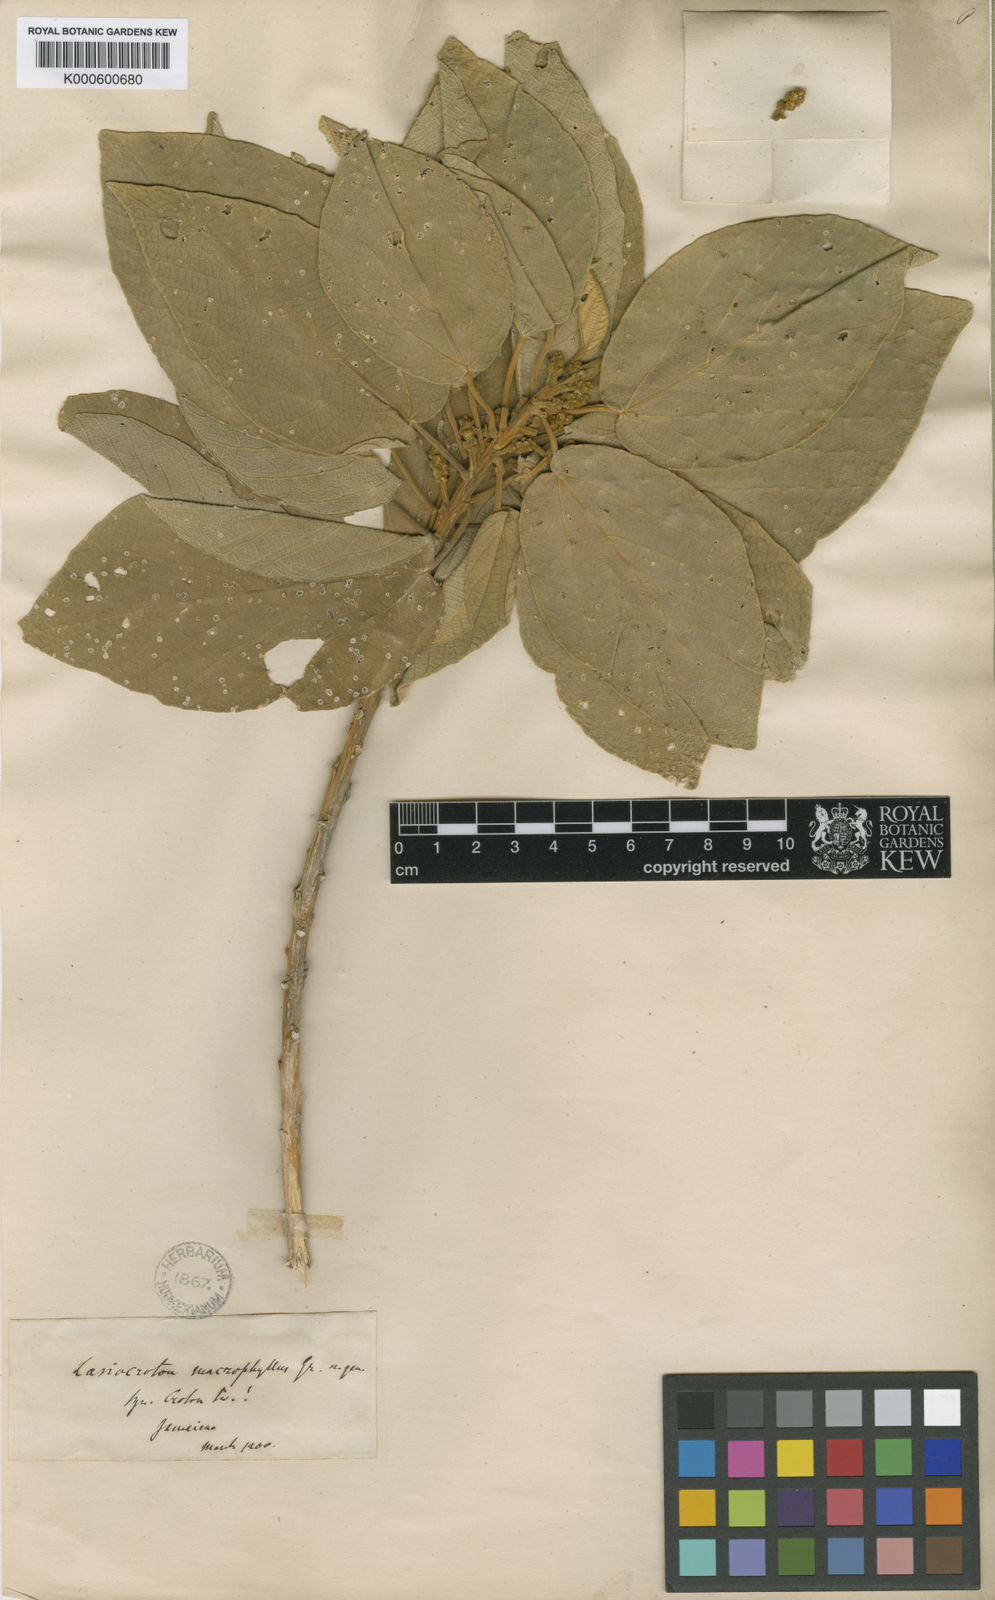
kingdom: Plantae
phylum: Tracheophyta
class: Magnoliopsida
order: Malpighiales
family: Euphorbiaceae
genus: Lasiocroton
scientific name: Lasiocroton macrophyllus
